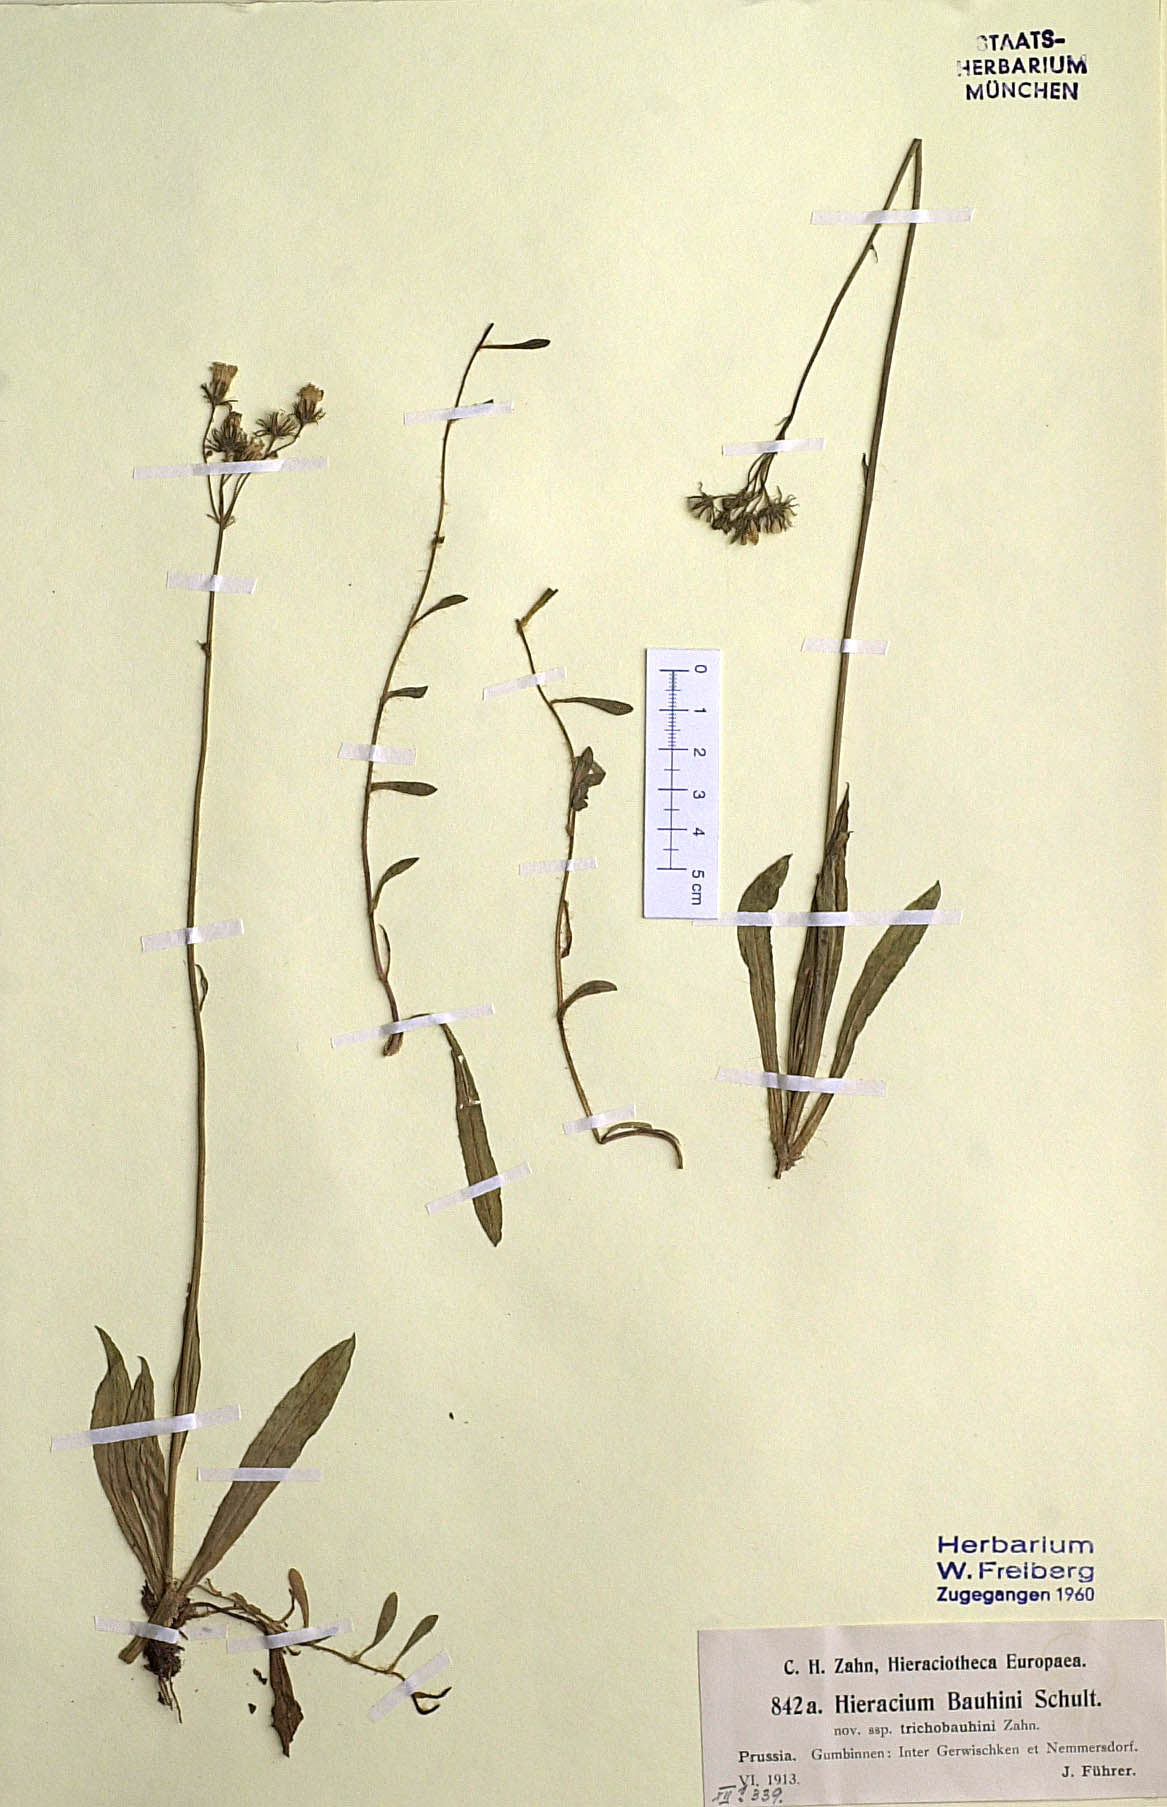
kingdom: Plantae
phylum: Tracheophyta
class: Magnoliopsida
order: Asterales
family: Asteraceae
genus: Pilosella
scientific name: Pilosella bauhini
